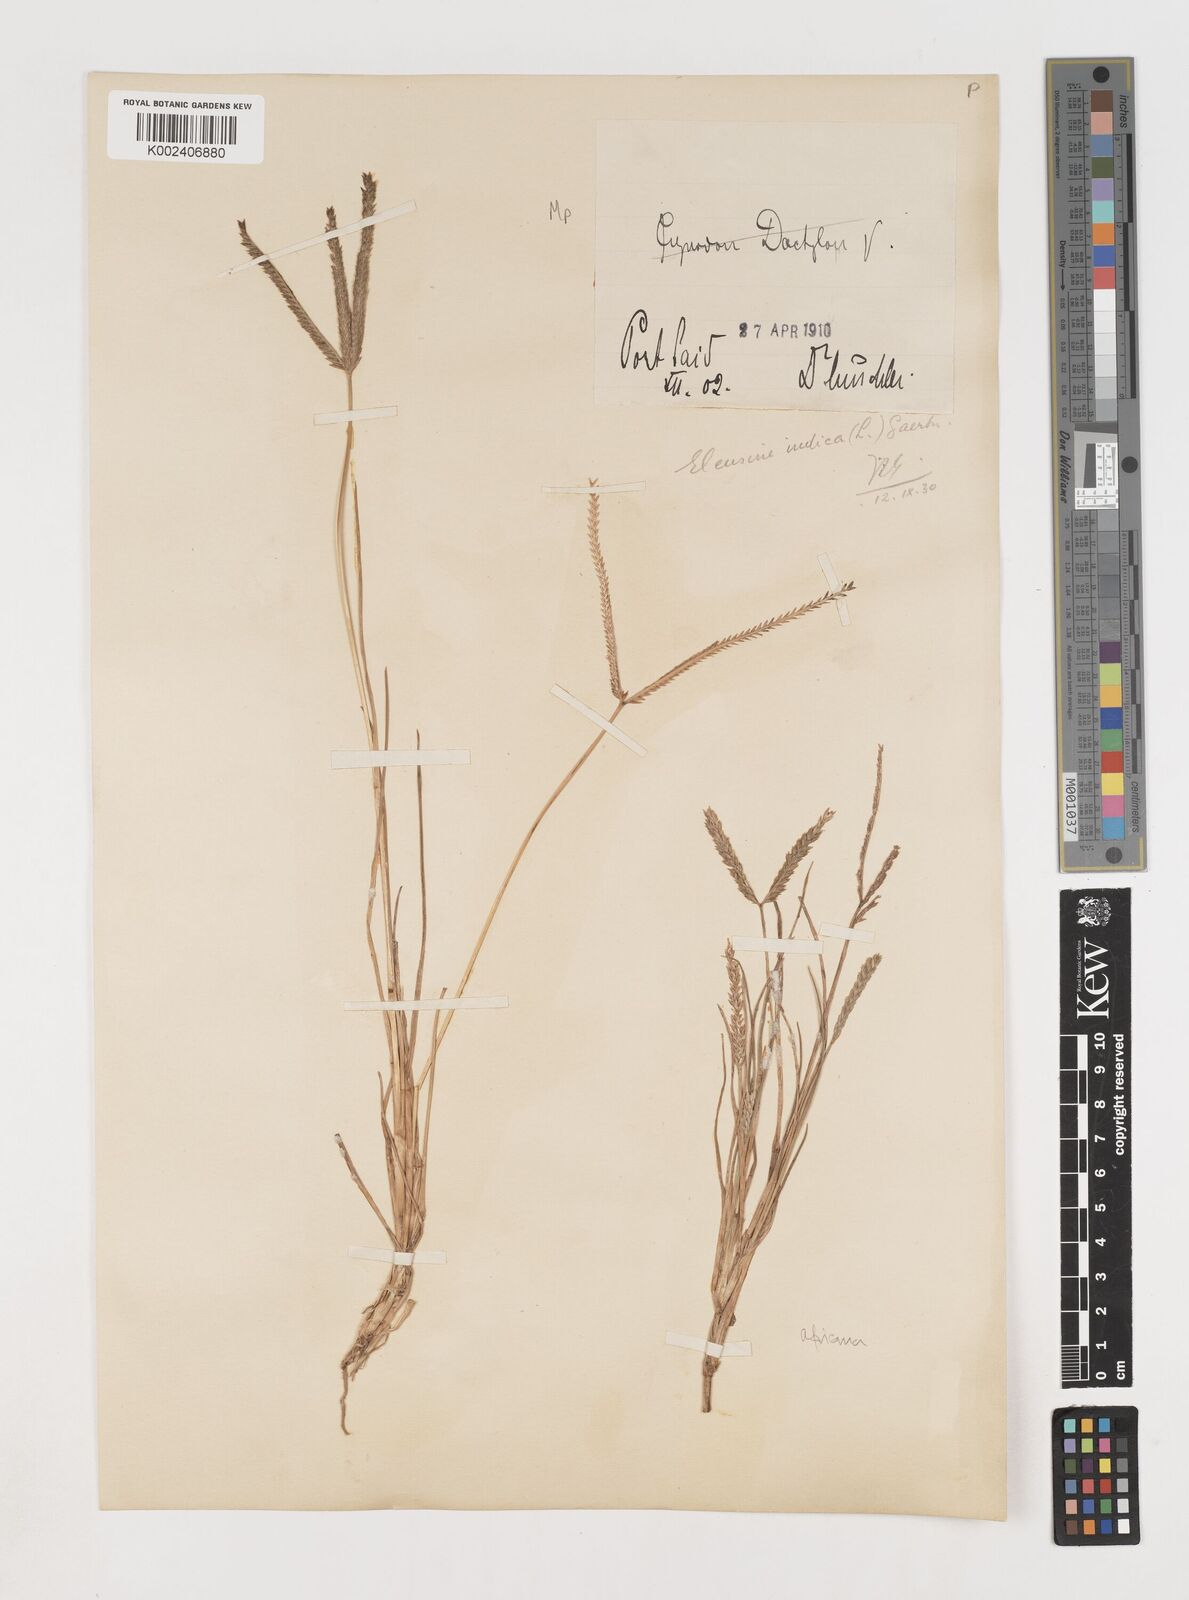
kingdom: Plantae
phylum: Tracheophyta
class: Liliopsida
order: Poales
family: Poaceae
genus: Eleusine
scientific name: Eleusine africana
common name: Wild african finger millet
